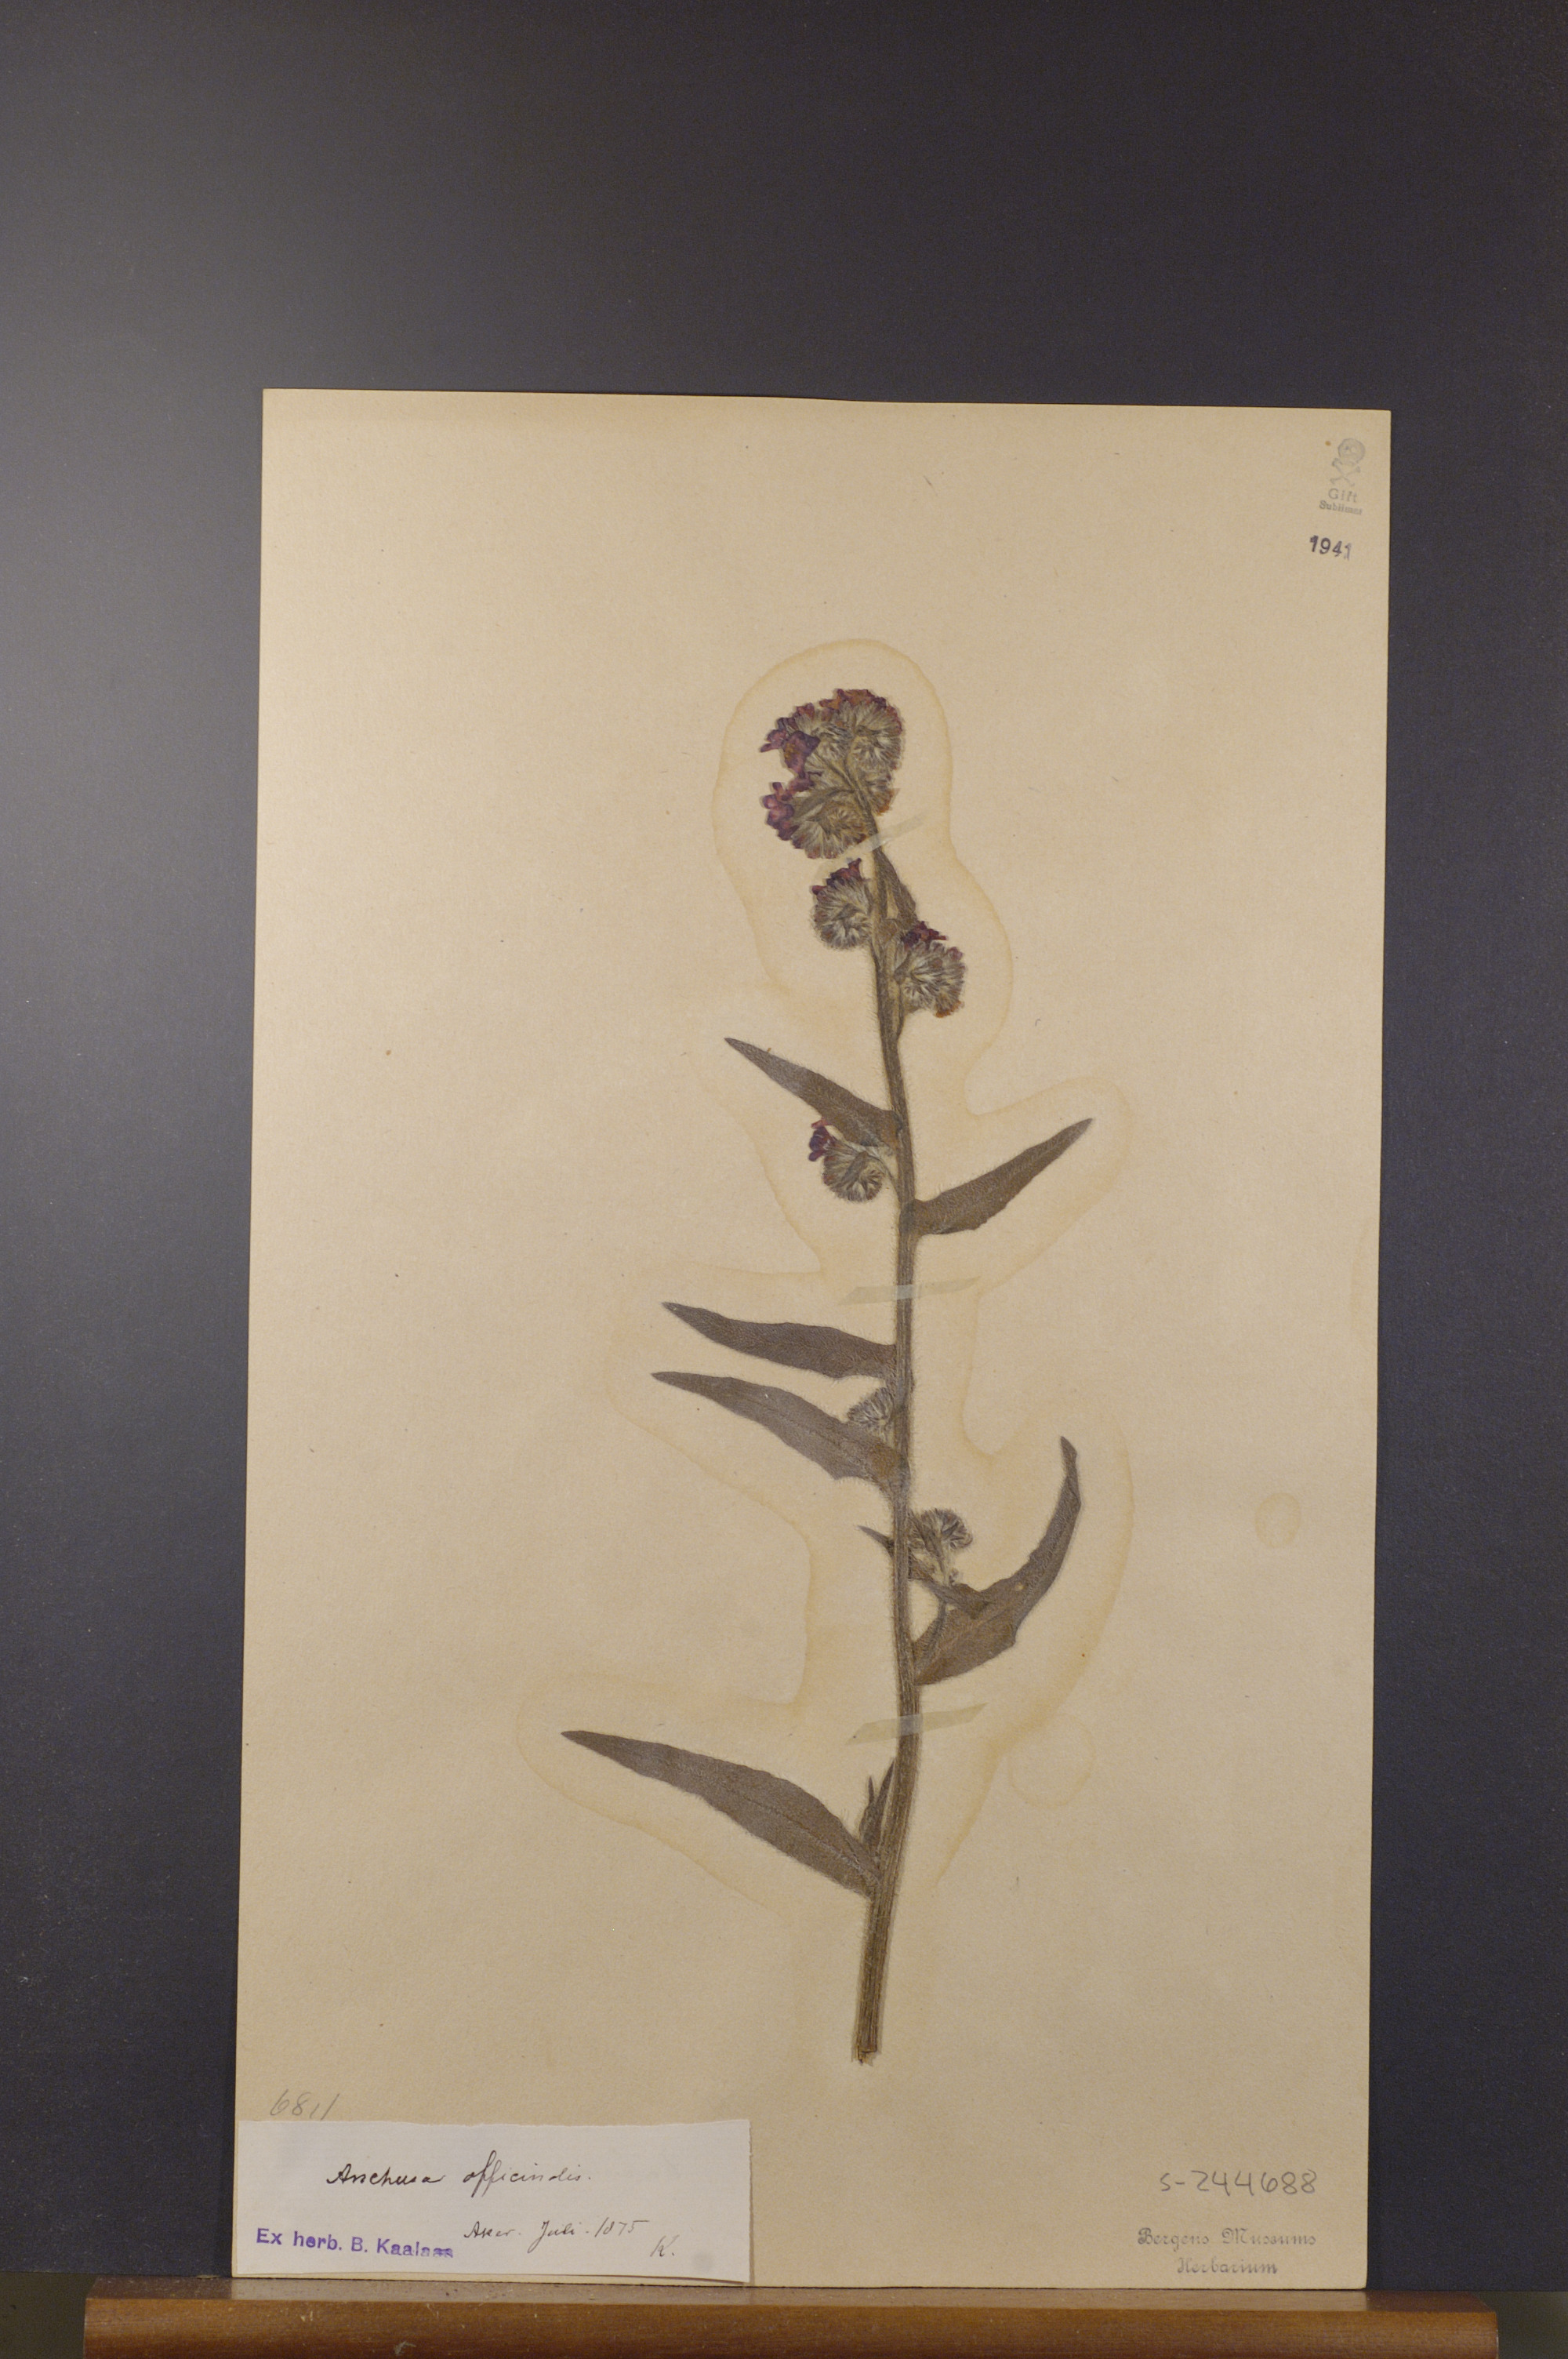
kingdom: Plantae
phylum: Tracheophyta
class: Magnoliopsida
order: Boraginales
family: Boraginaceae
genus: Anchusa
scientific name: Anchusa officinalis
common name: Alkanet
